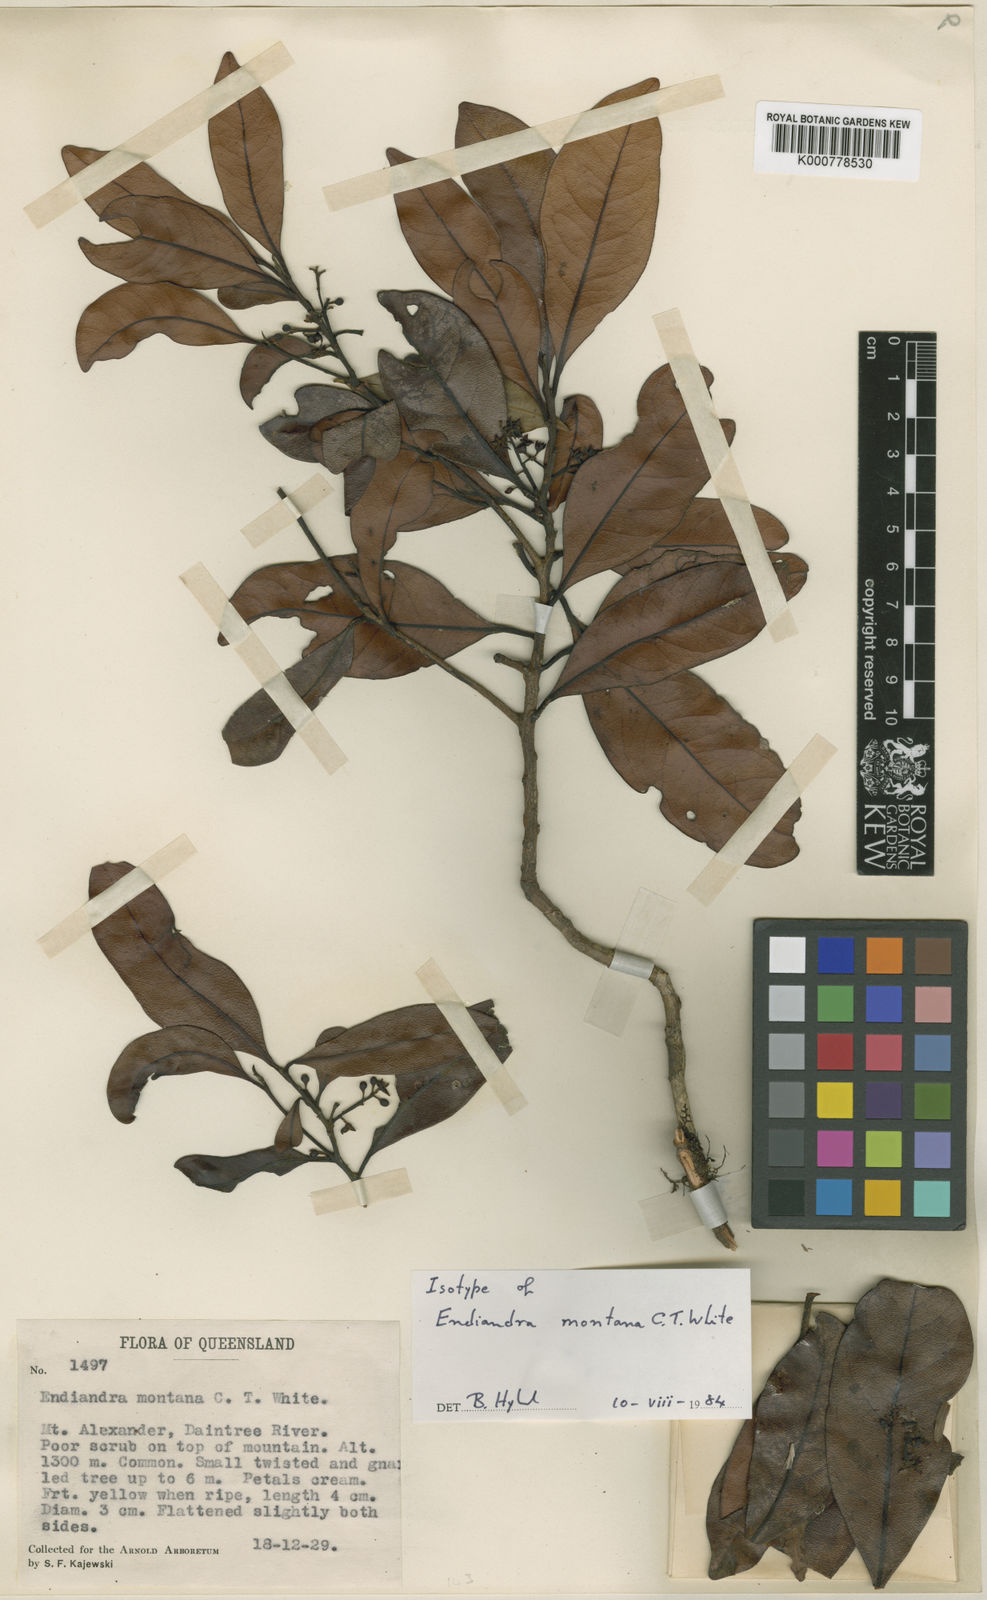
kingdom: Plantae
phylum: Tracheophyta
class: Magnoliopsida
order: Laurales
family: Lauraceae
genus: Endiandra
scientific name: Endiandra montana
